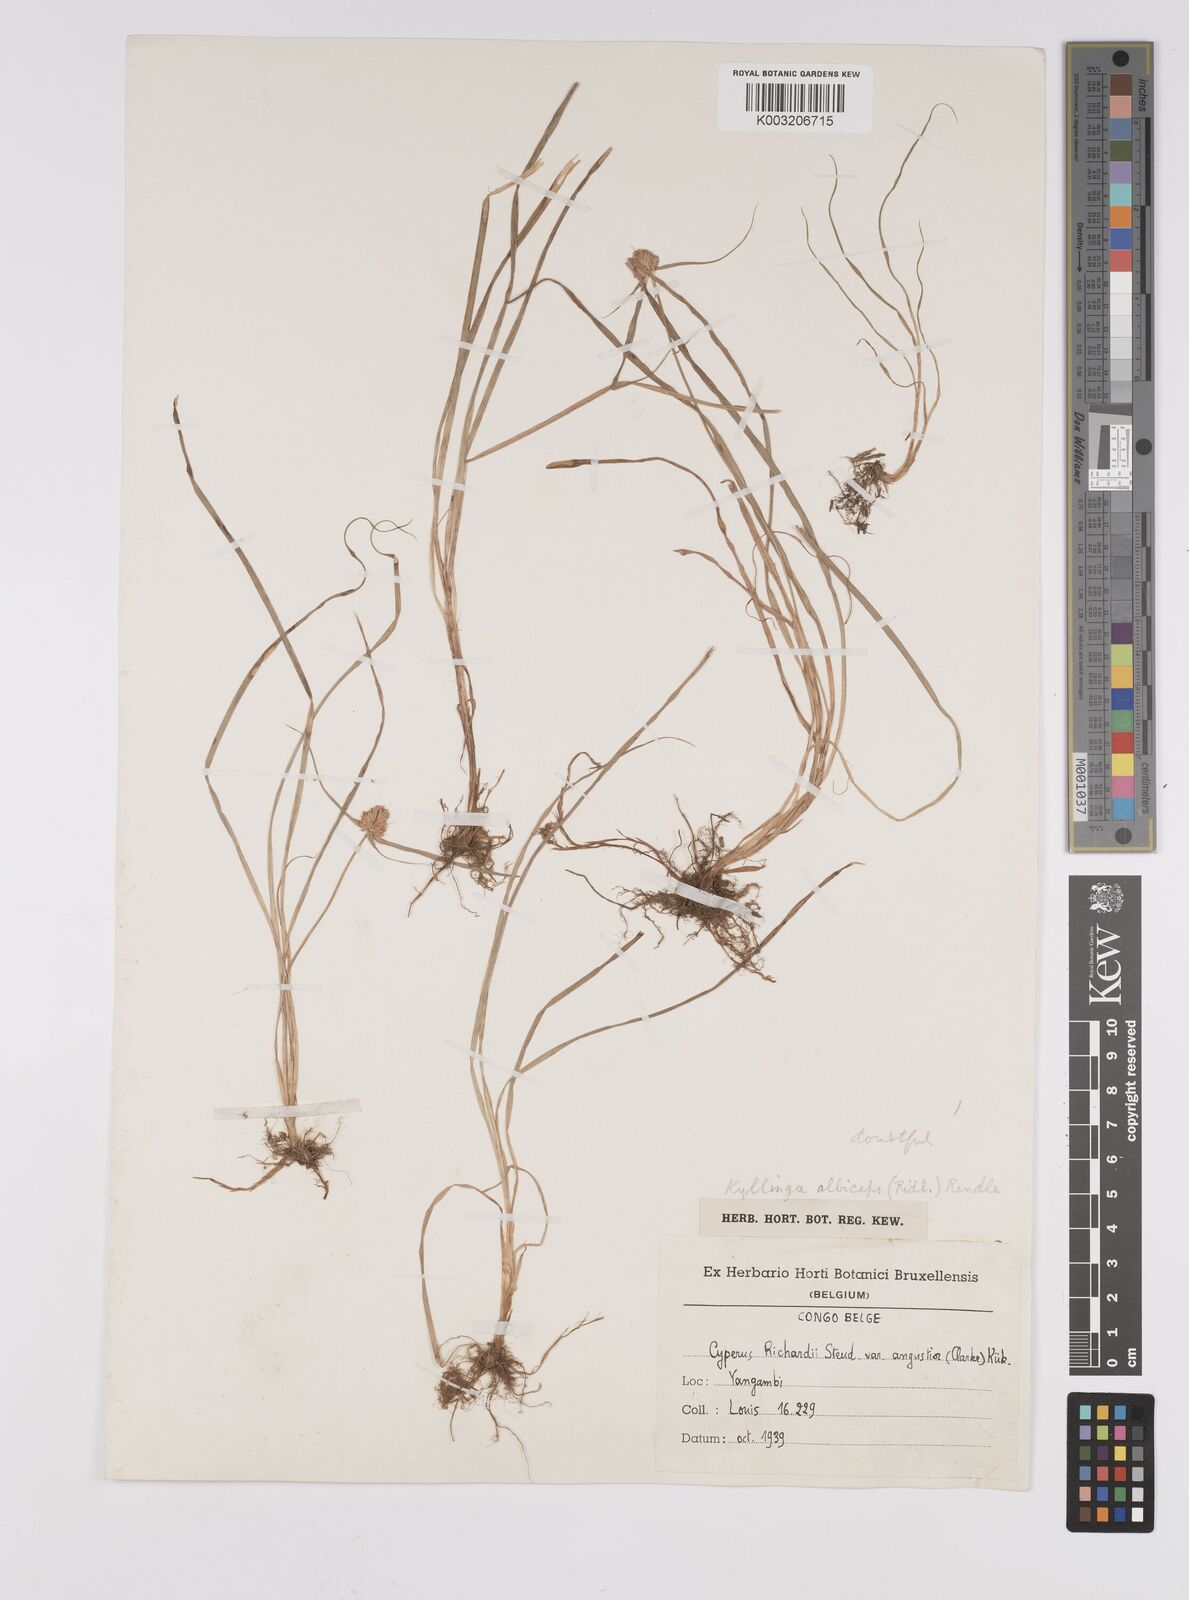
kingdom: Plantae
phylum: Tracheophyta
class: Liliopsida
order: Poales
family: Cyperaceae
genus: Cyperus
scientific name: Cyperus conglobatus
